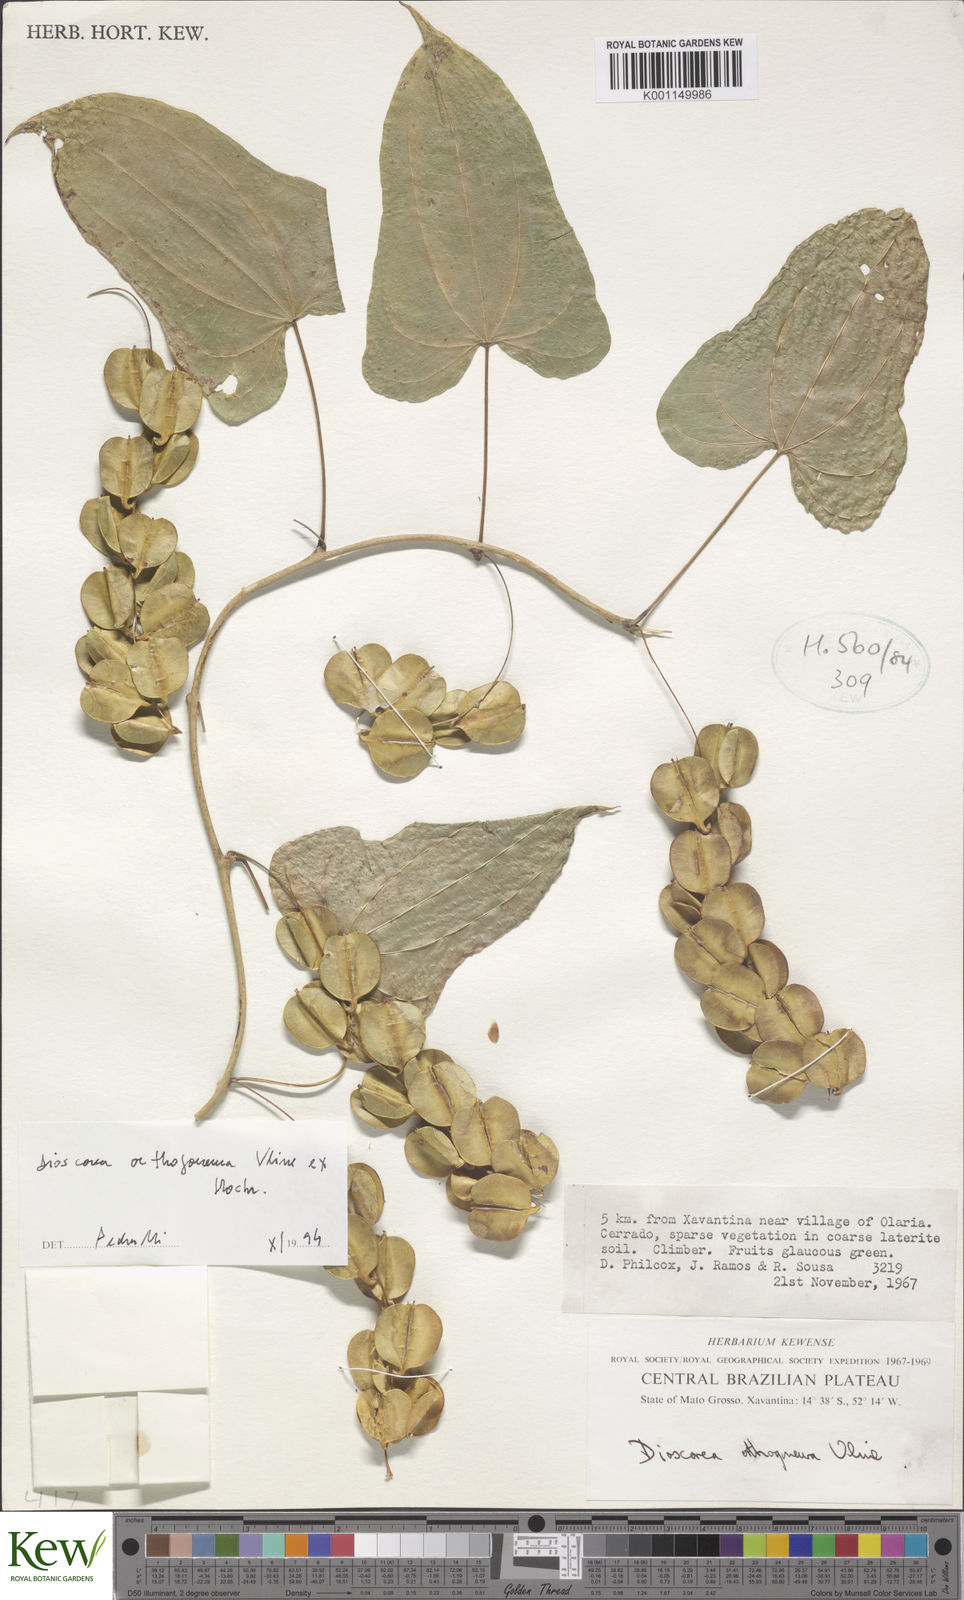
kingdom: Plantae
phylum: Tracheophyta
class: Liliopsida
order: Dioscoreales
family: Dioscoreaceae
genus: Dioscorea
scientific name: Dioscorea orthogoneura
